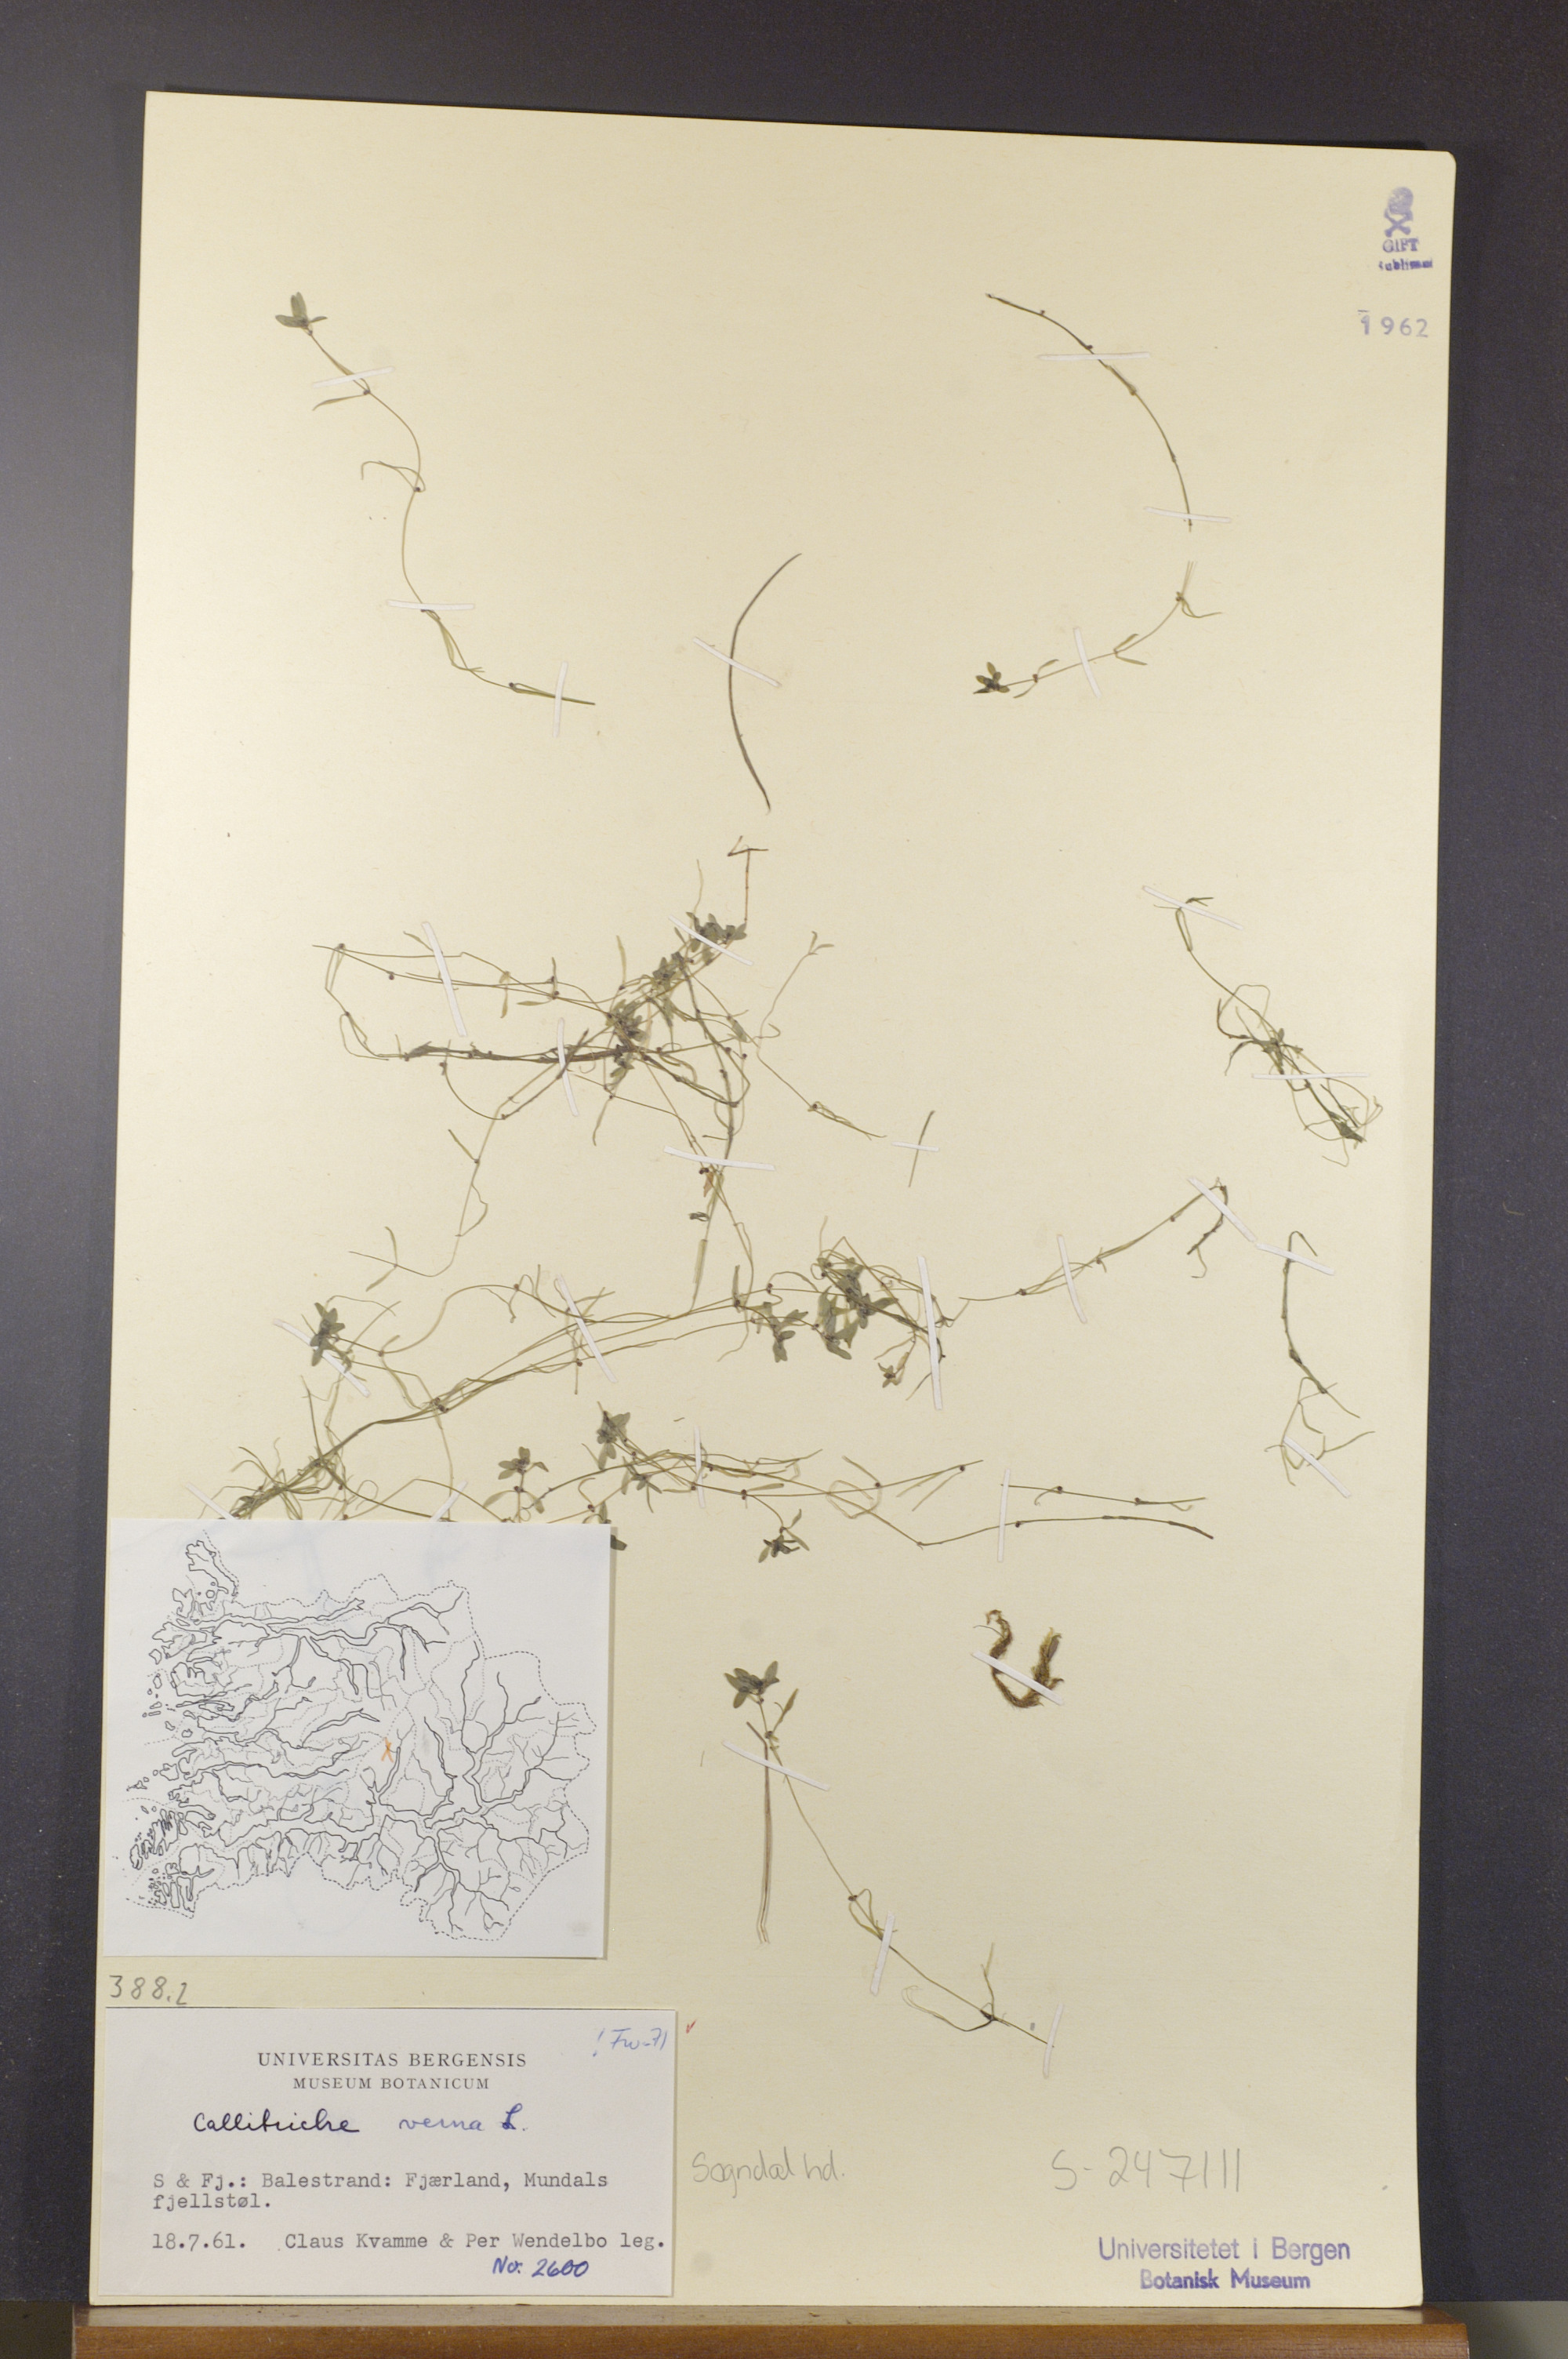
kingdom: Plantae
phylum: Tracheophyta
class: Magnoliopsida
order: Lamiales
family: Plantaginaceae
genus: Callitriche
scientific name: Callitriche palustris
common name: Spring water-starwort
